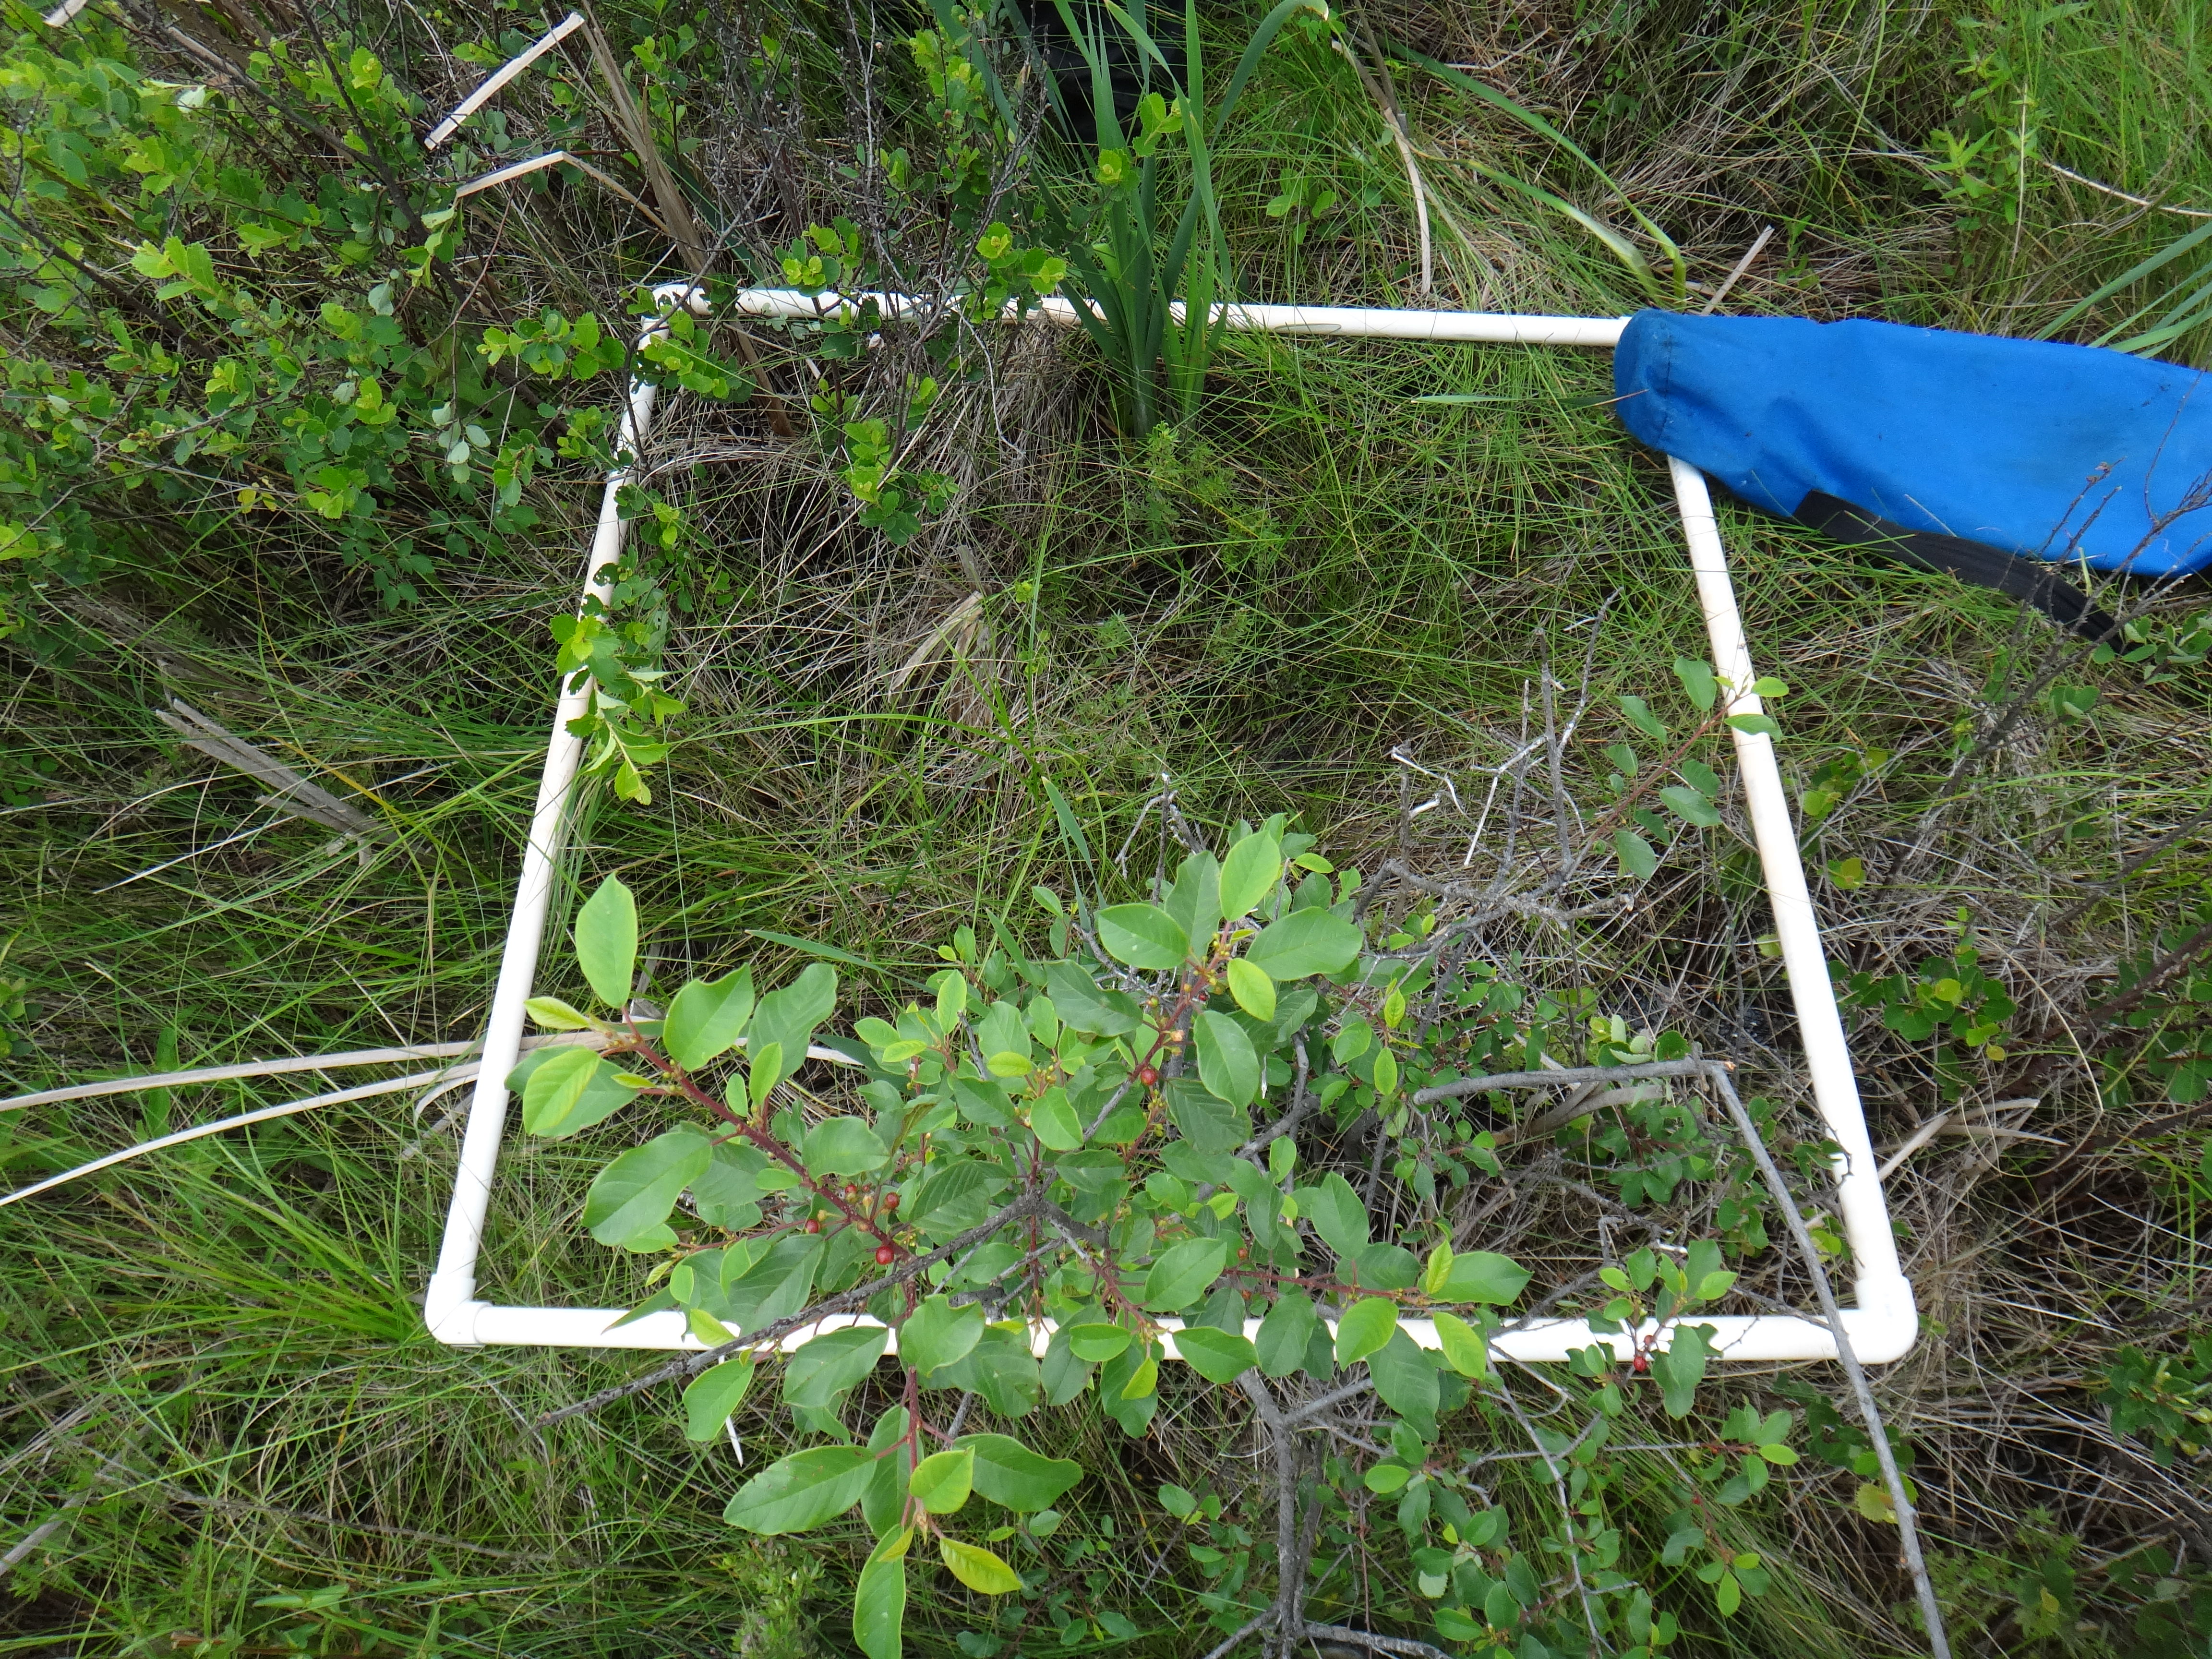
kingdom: Plantae
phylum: Tracheophyta
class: Liliopsida
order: Poales
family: Poaceae
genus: Dichanthelium
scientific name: Dichanthelium implicatum
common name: Slender-stemmed panicgrass
